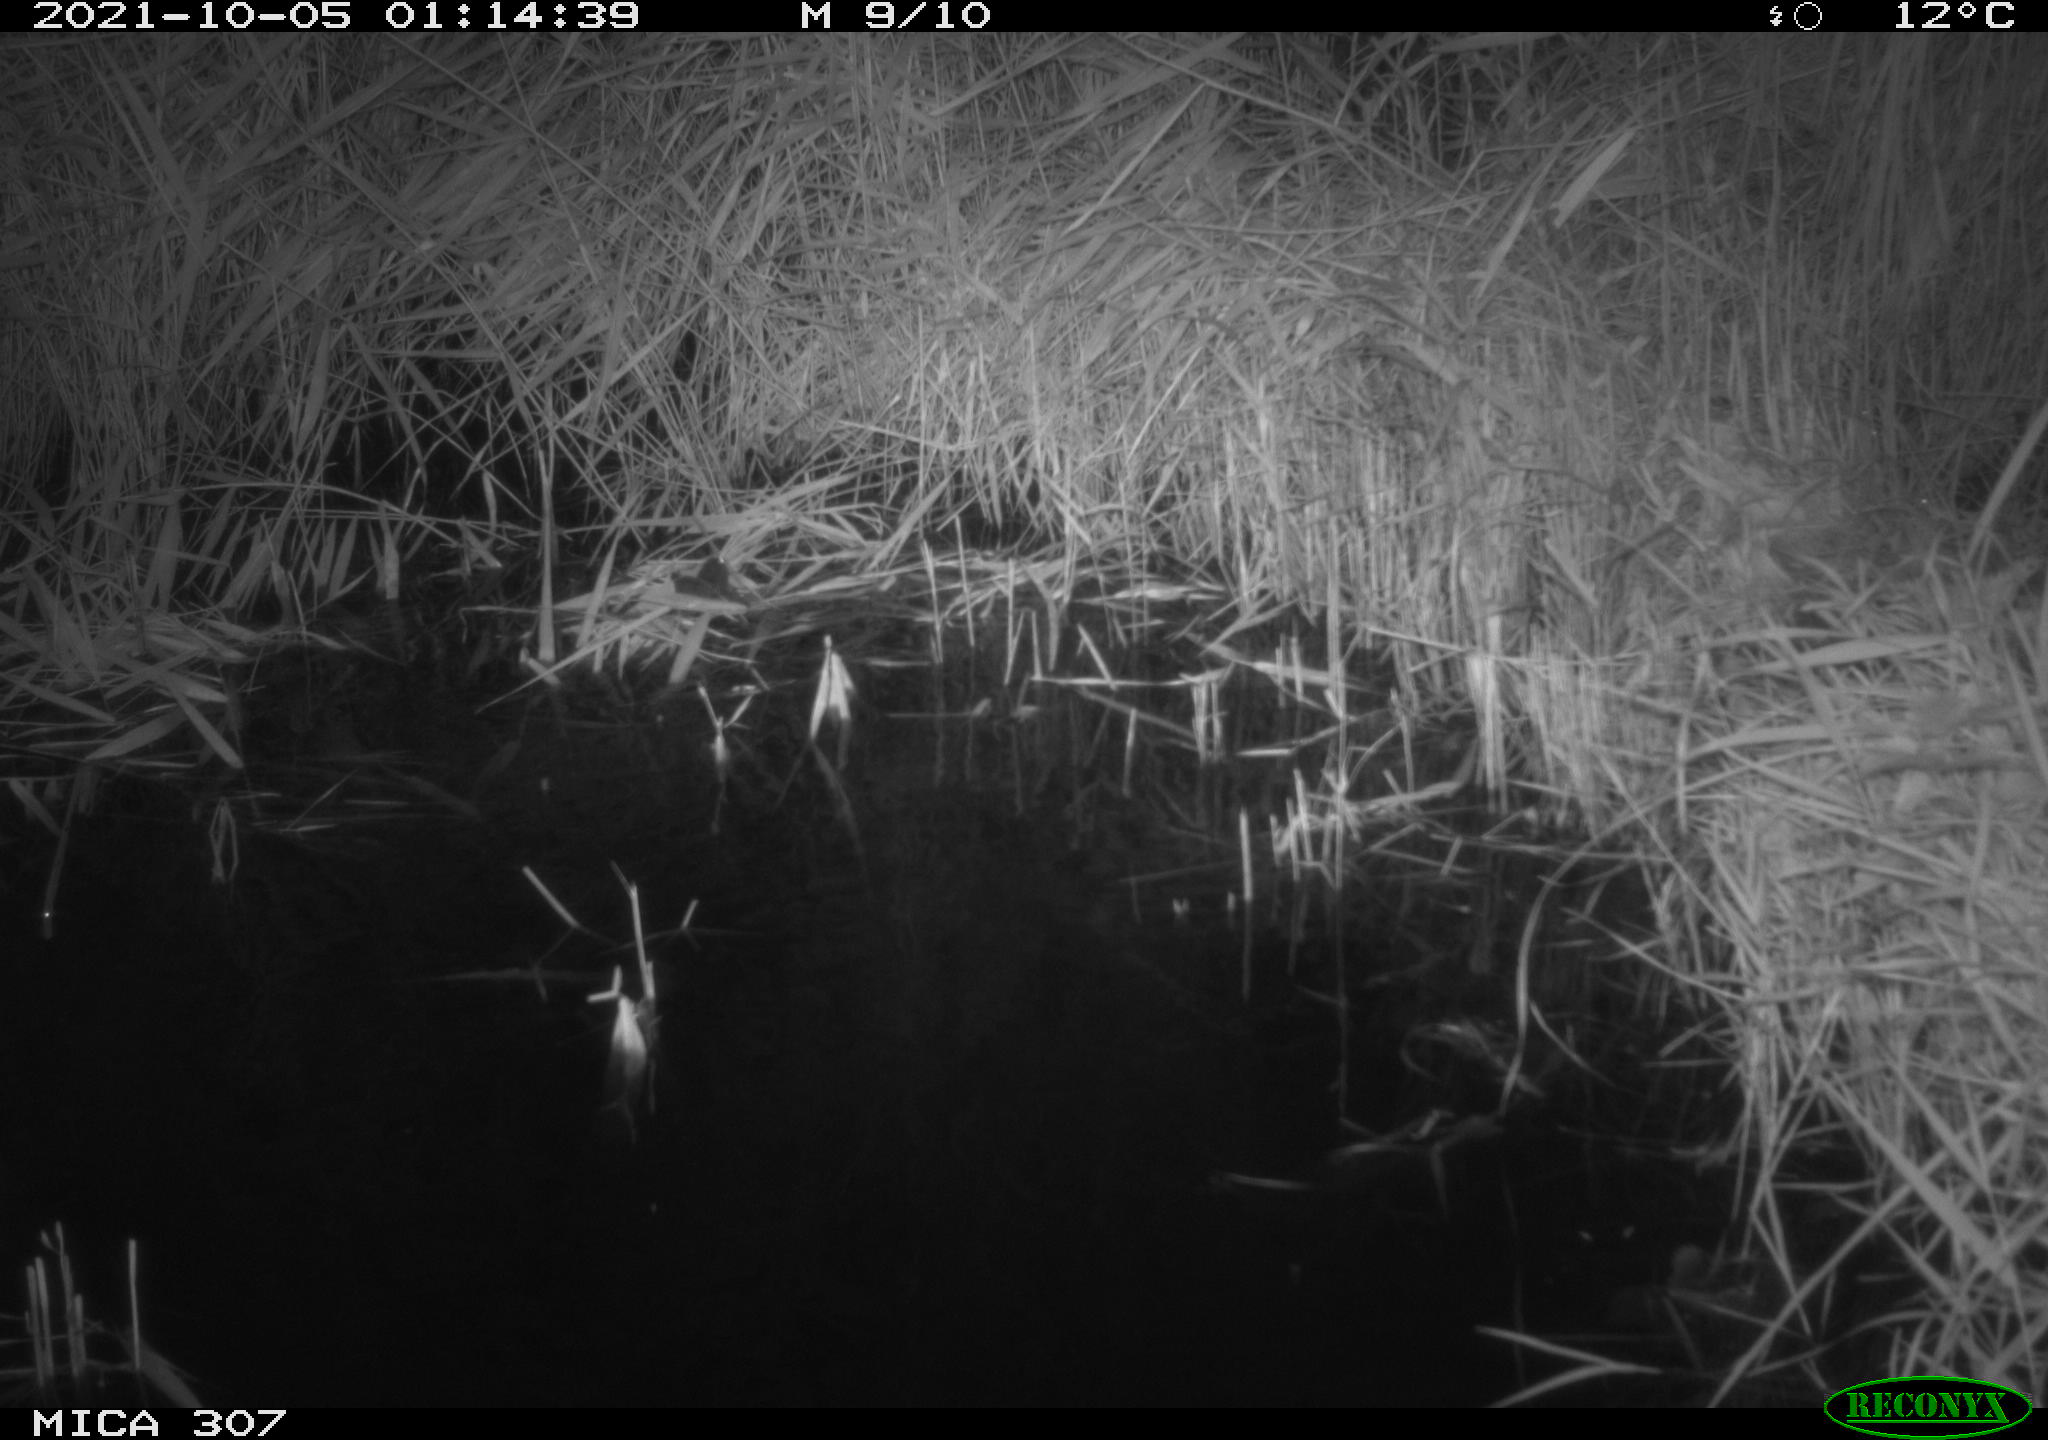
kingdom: Animalia
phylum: Chordata
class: Mammalia
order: Rodentia
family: Muridae
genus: Rattus
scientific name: Rattus norvegicus
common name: Brown rat
